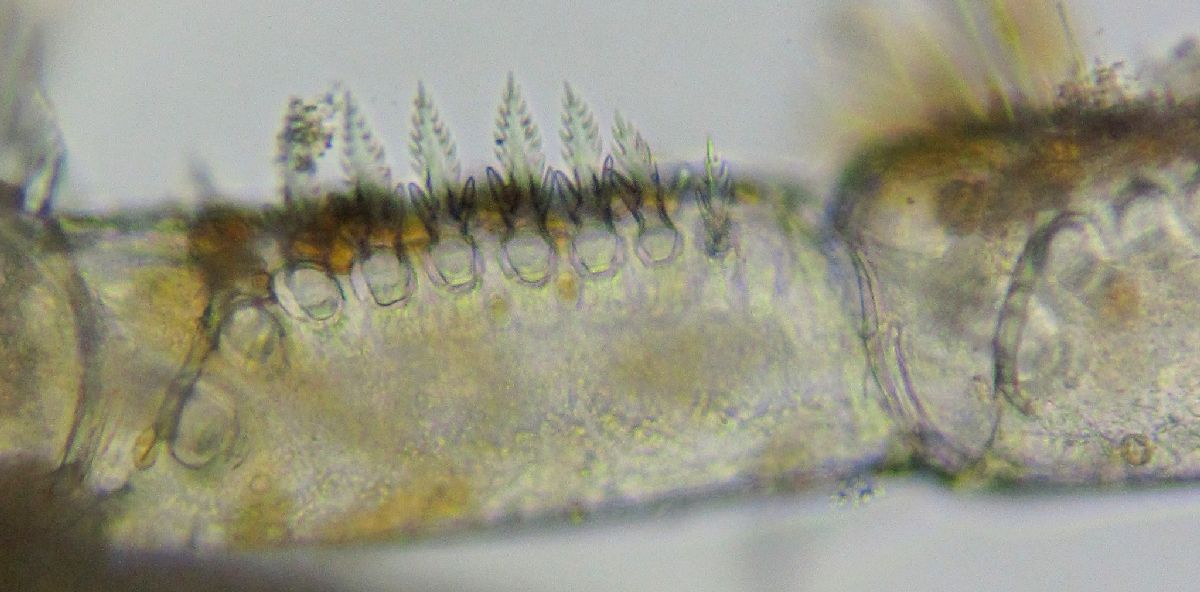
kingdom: Animalia
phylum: Arthropoda
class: Pycnogonida
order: Pantopoda
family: Nymphonidae
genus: Nymphon
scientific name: Nymphon microrhynchum
